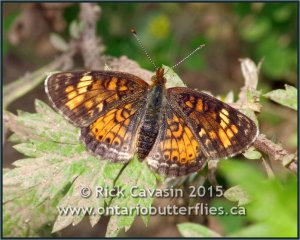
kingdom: Animalia
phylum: Arthropoda
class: Insecta
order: Lepidoptera
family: Nymphalidae
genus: Phyciodes
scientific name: Phyciodes tharos
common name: Pearl Crescent
